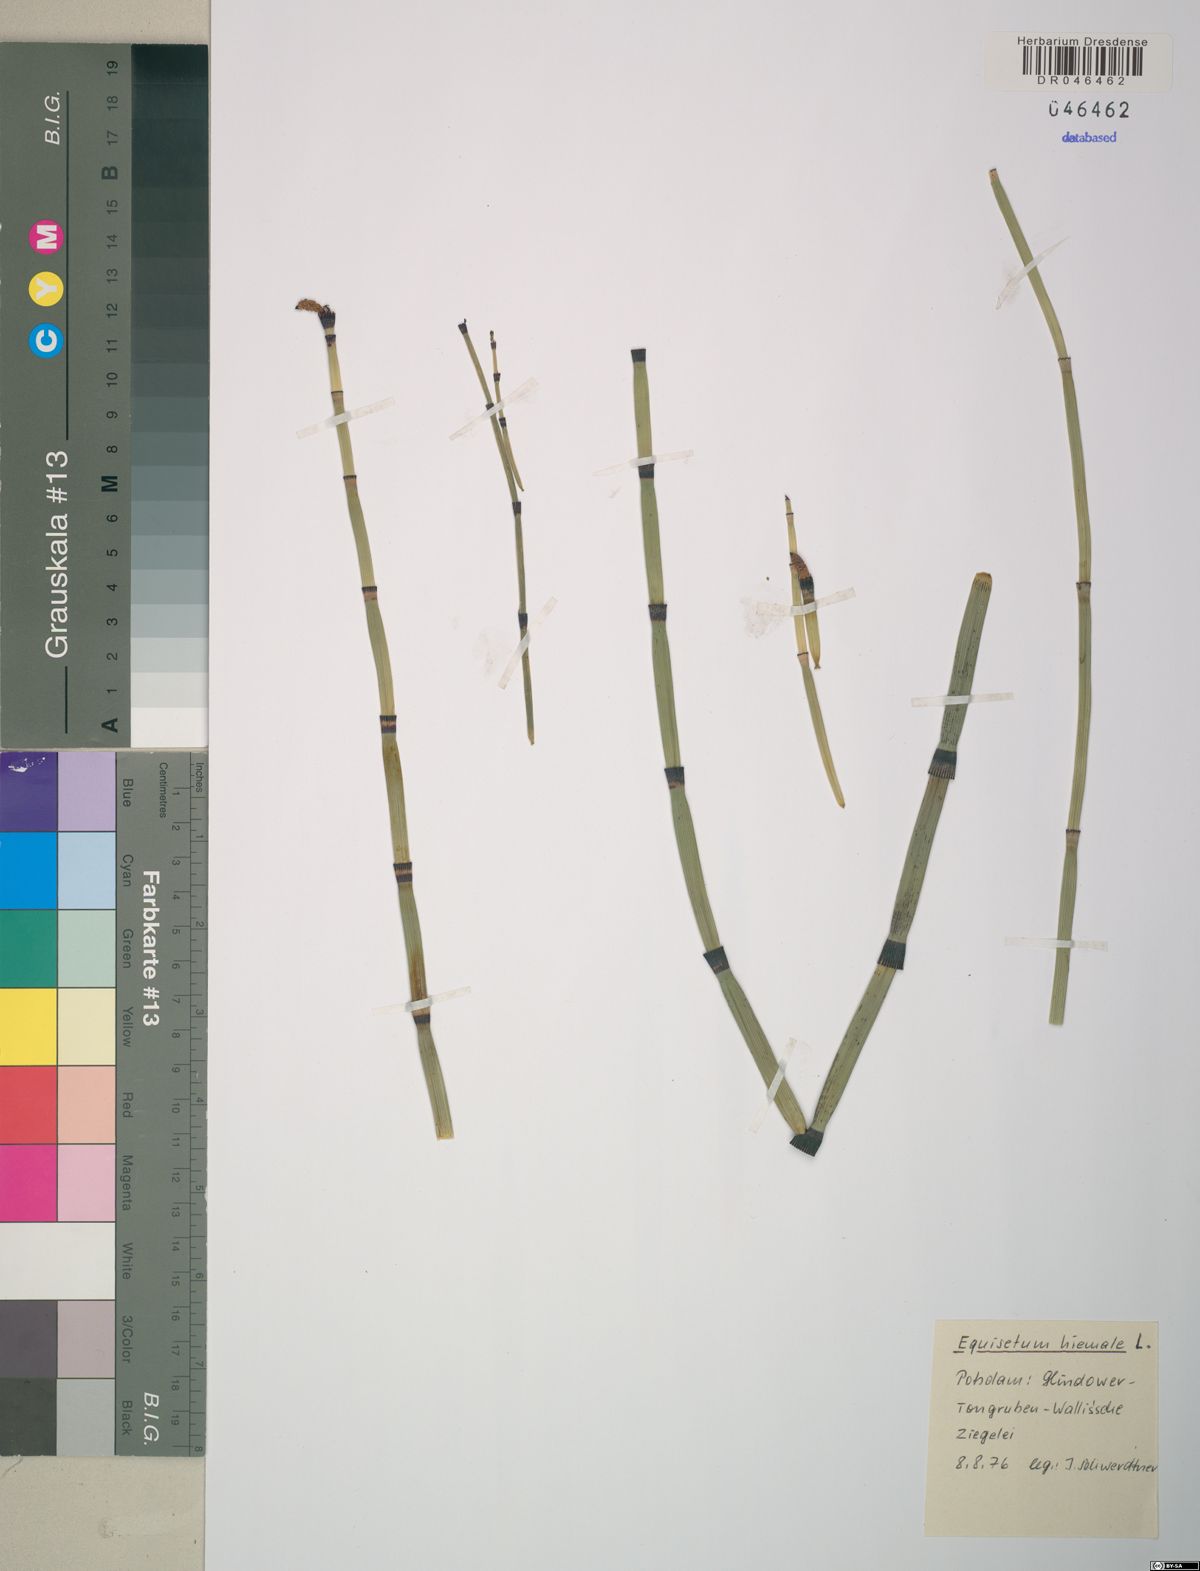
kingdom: Plantae
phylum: Tracheophyta
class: Polypodiopsida
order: Equisetales
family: Equisetaceae
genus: Equisetum
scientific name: Equisetum hyemale
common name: Rough horsetail
